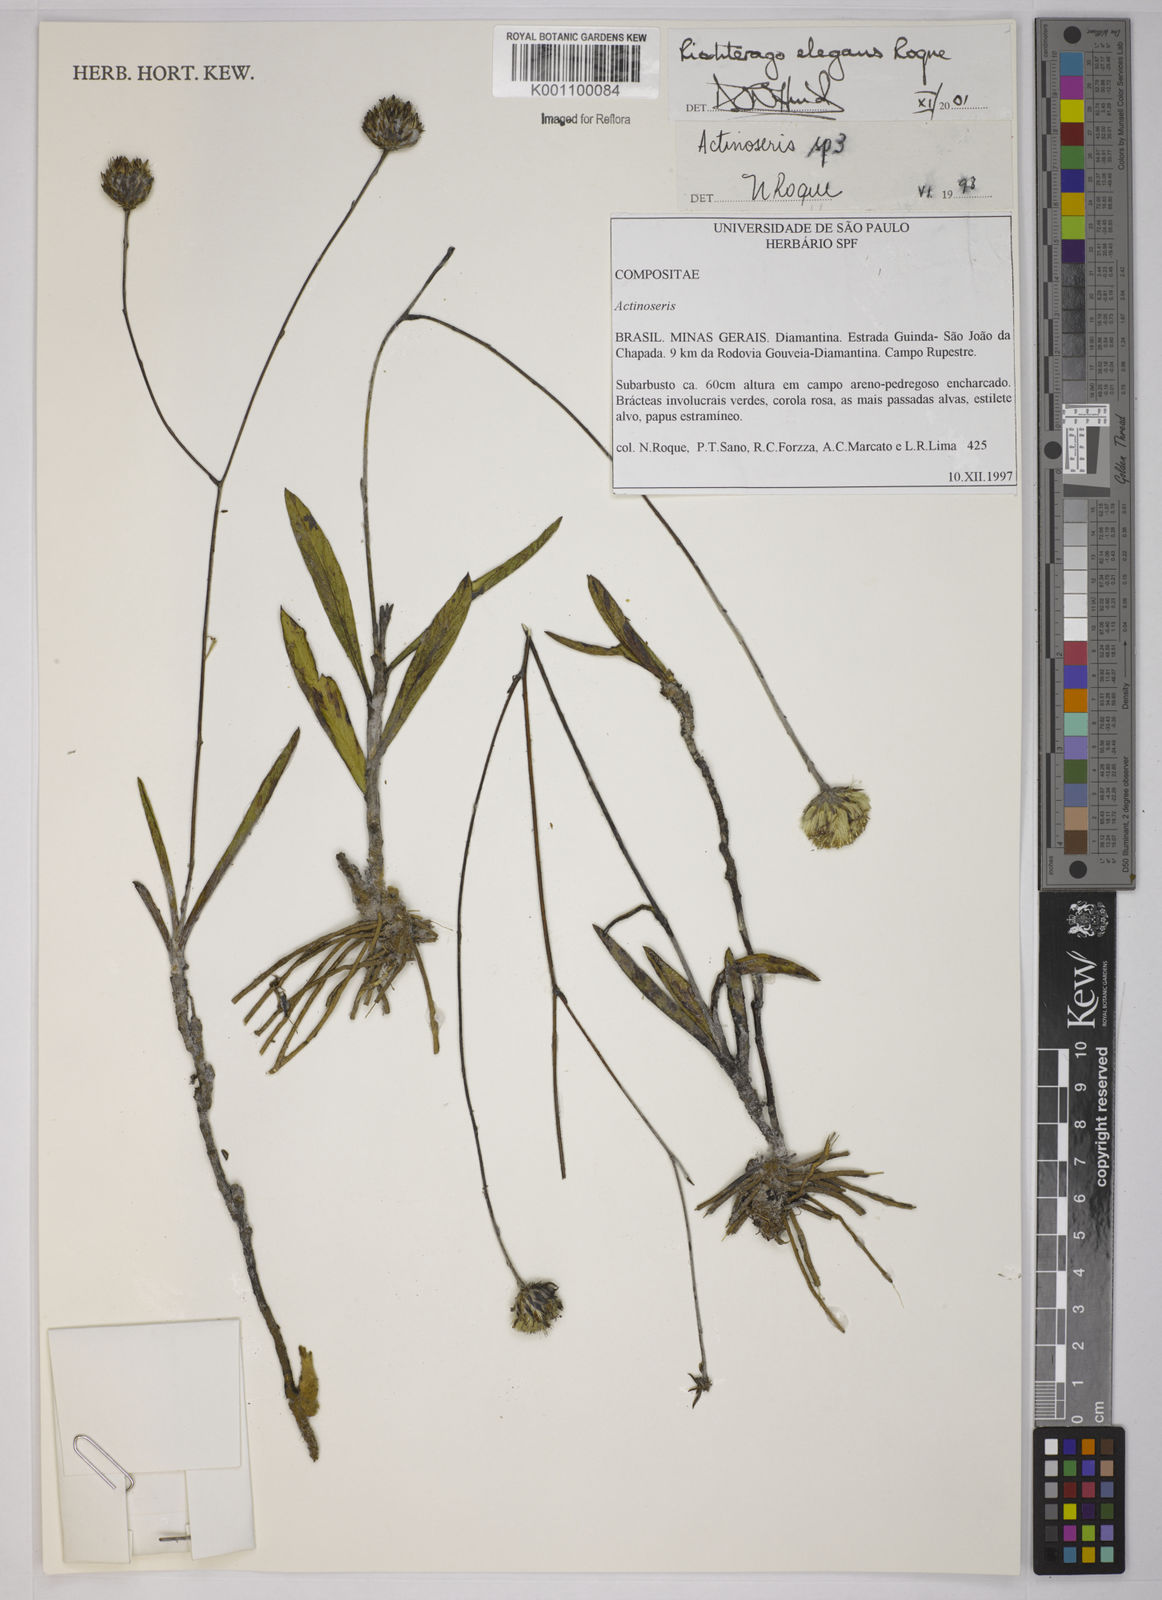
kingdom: Plantae
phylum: Tracheophyta
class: Magnoliopsida
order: Asterales
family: Asteraceae
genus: Richterago
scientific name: Richterago elegans
